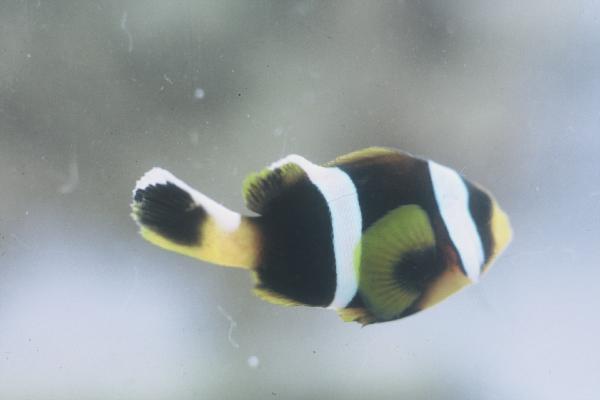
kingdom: Animalia
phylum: Chordata
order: Perciformes
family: Pomacentridae
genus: Amphiprion
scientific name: Amphiprion allardi
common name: Allard's anemonefish
